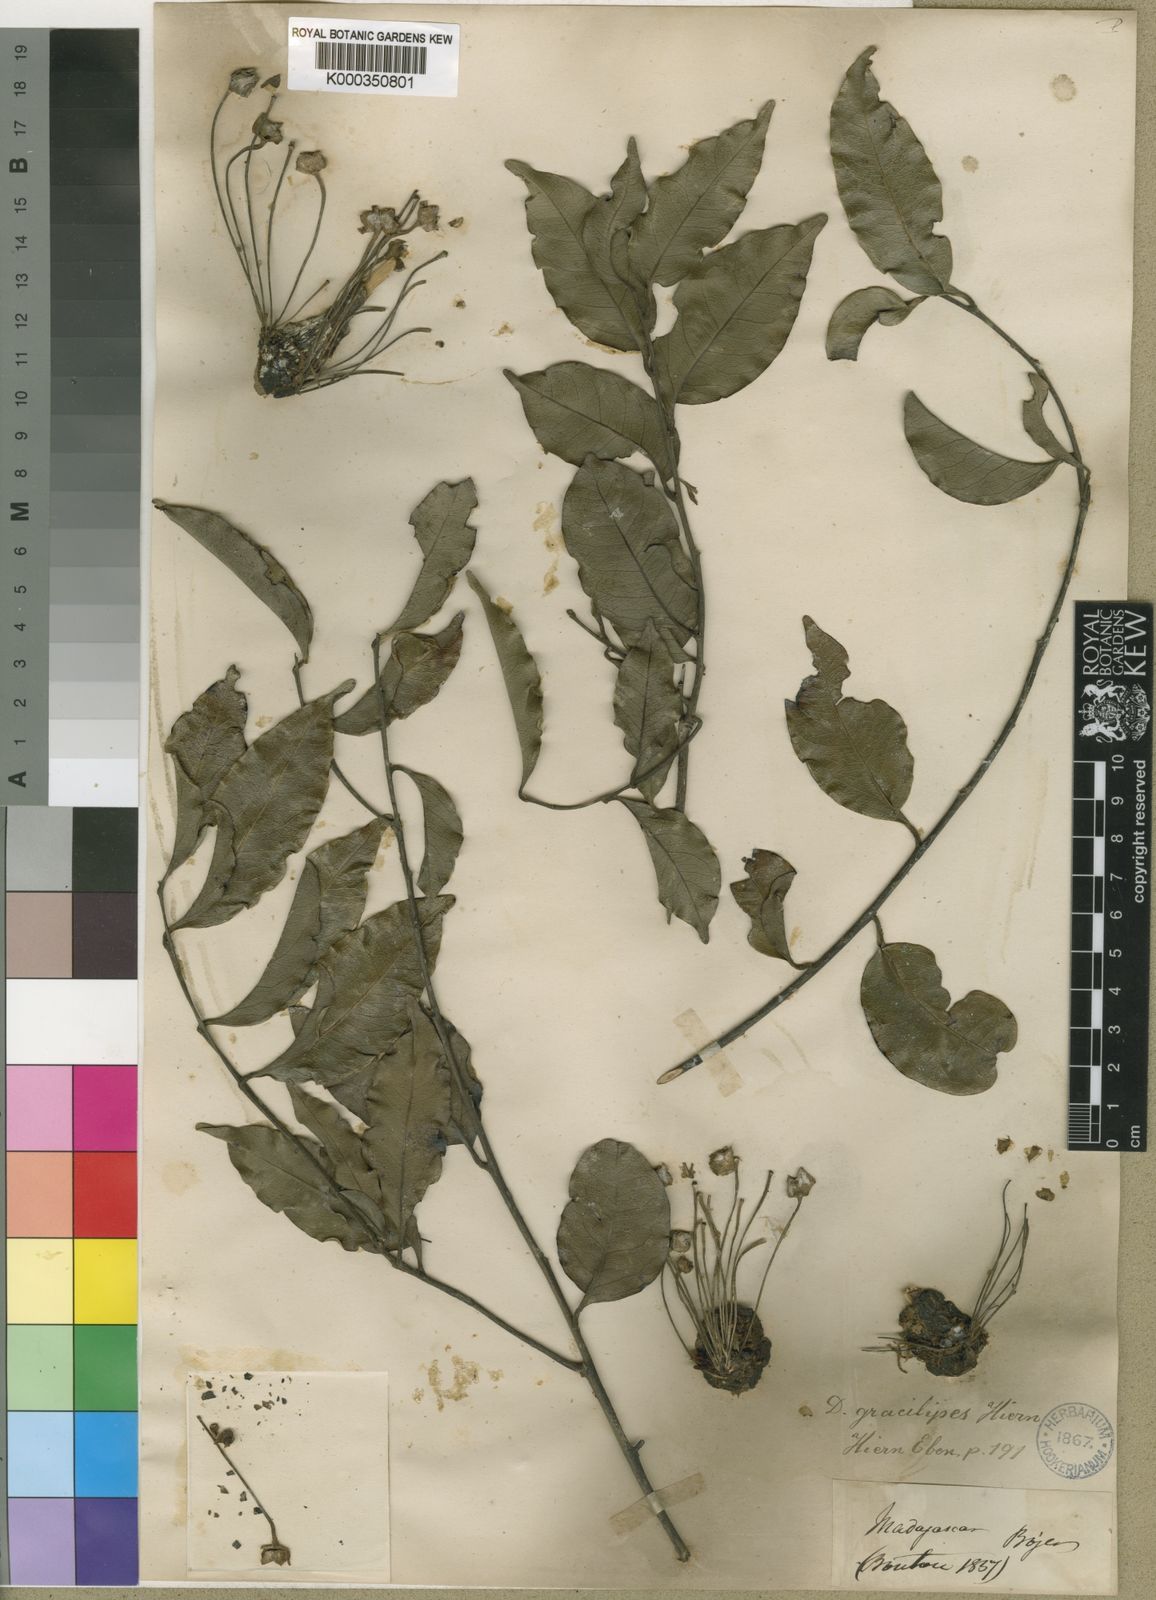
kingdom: Plantae
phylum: Tracheophyta
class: Magnoliopsida
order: Ericales
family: Ebenaceae
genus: Diospyros
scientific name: Diospyros gracilipes
